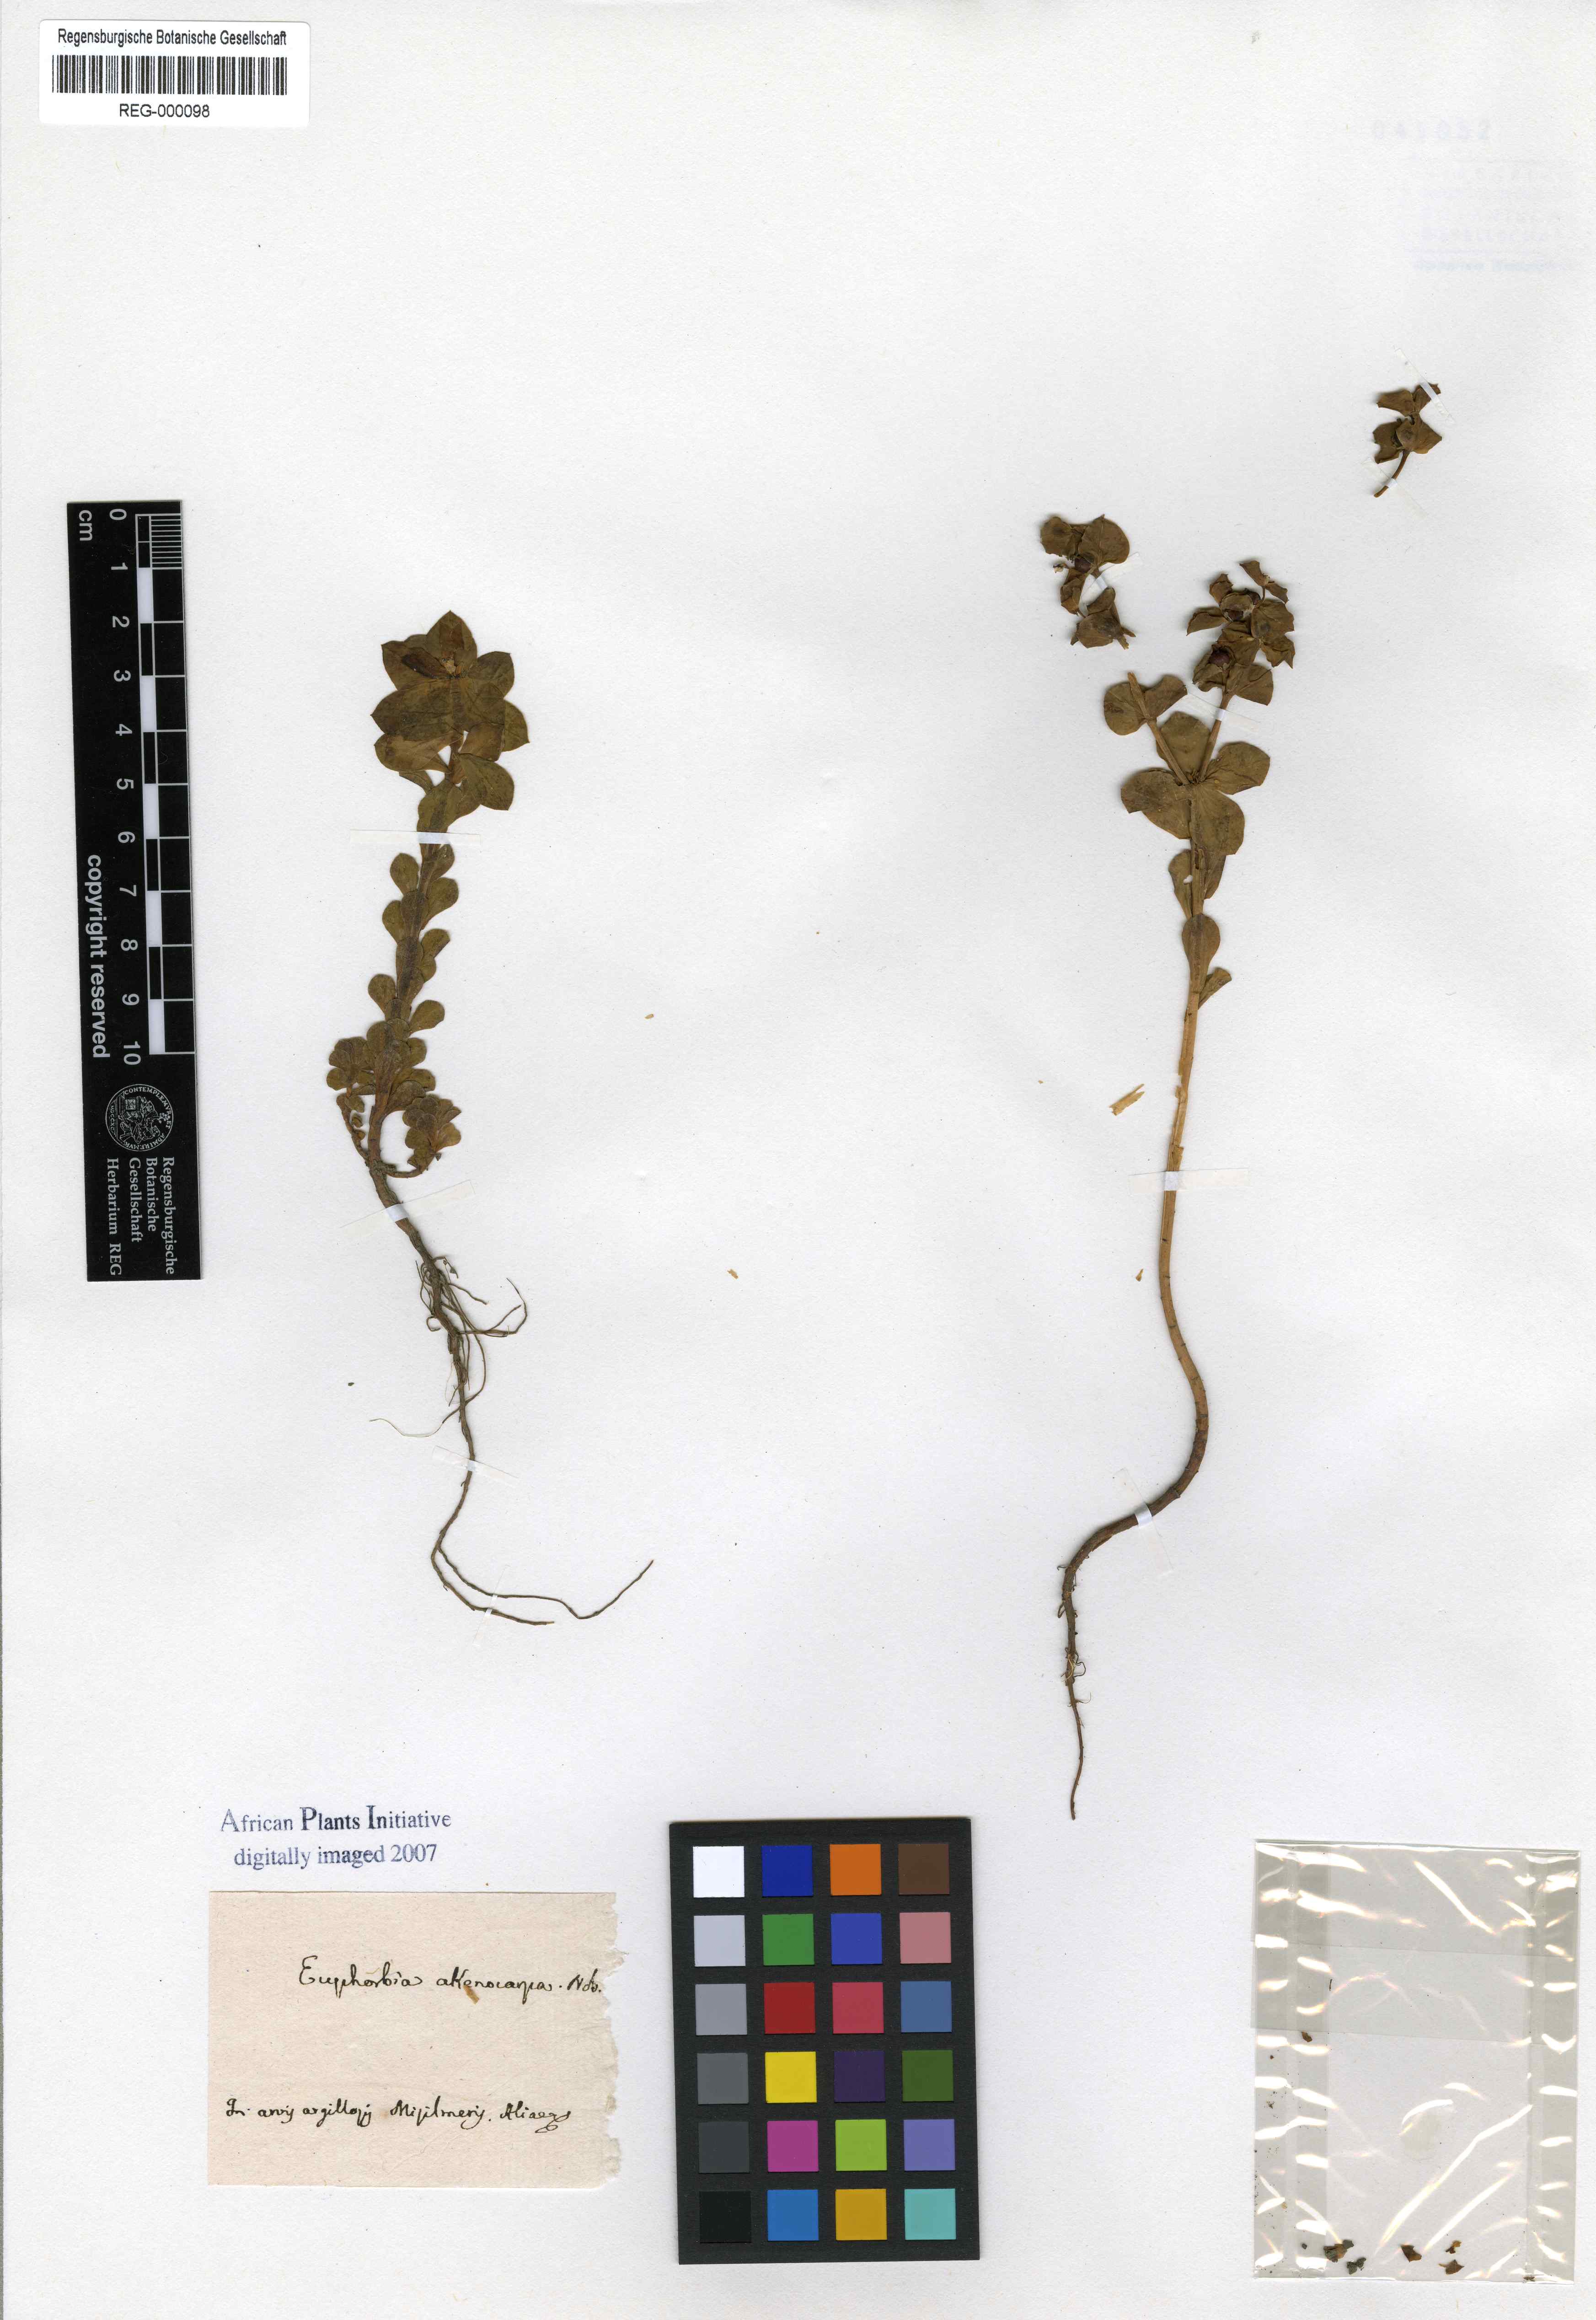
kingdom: Plantae
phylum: Tracheophyta
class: Magnoliopsida
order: Malpighiales
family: Euphorbiaceae
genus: Euphorbia
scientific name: Euphorbia akenocarpa
